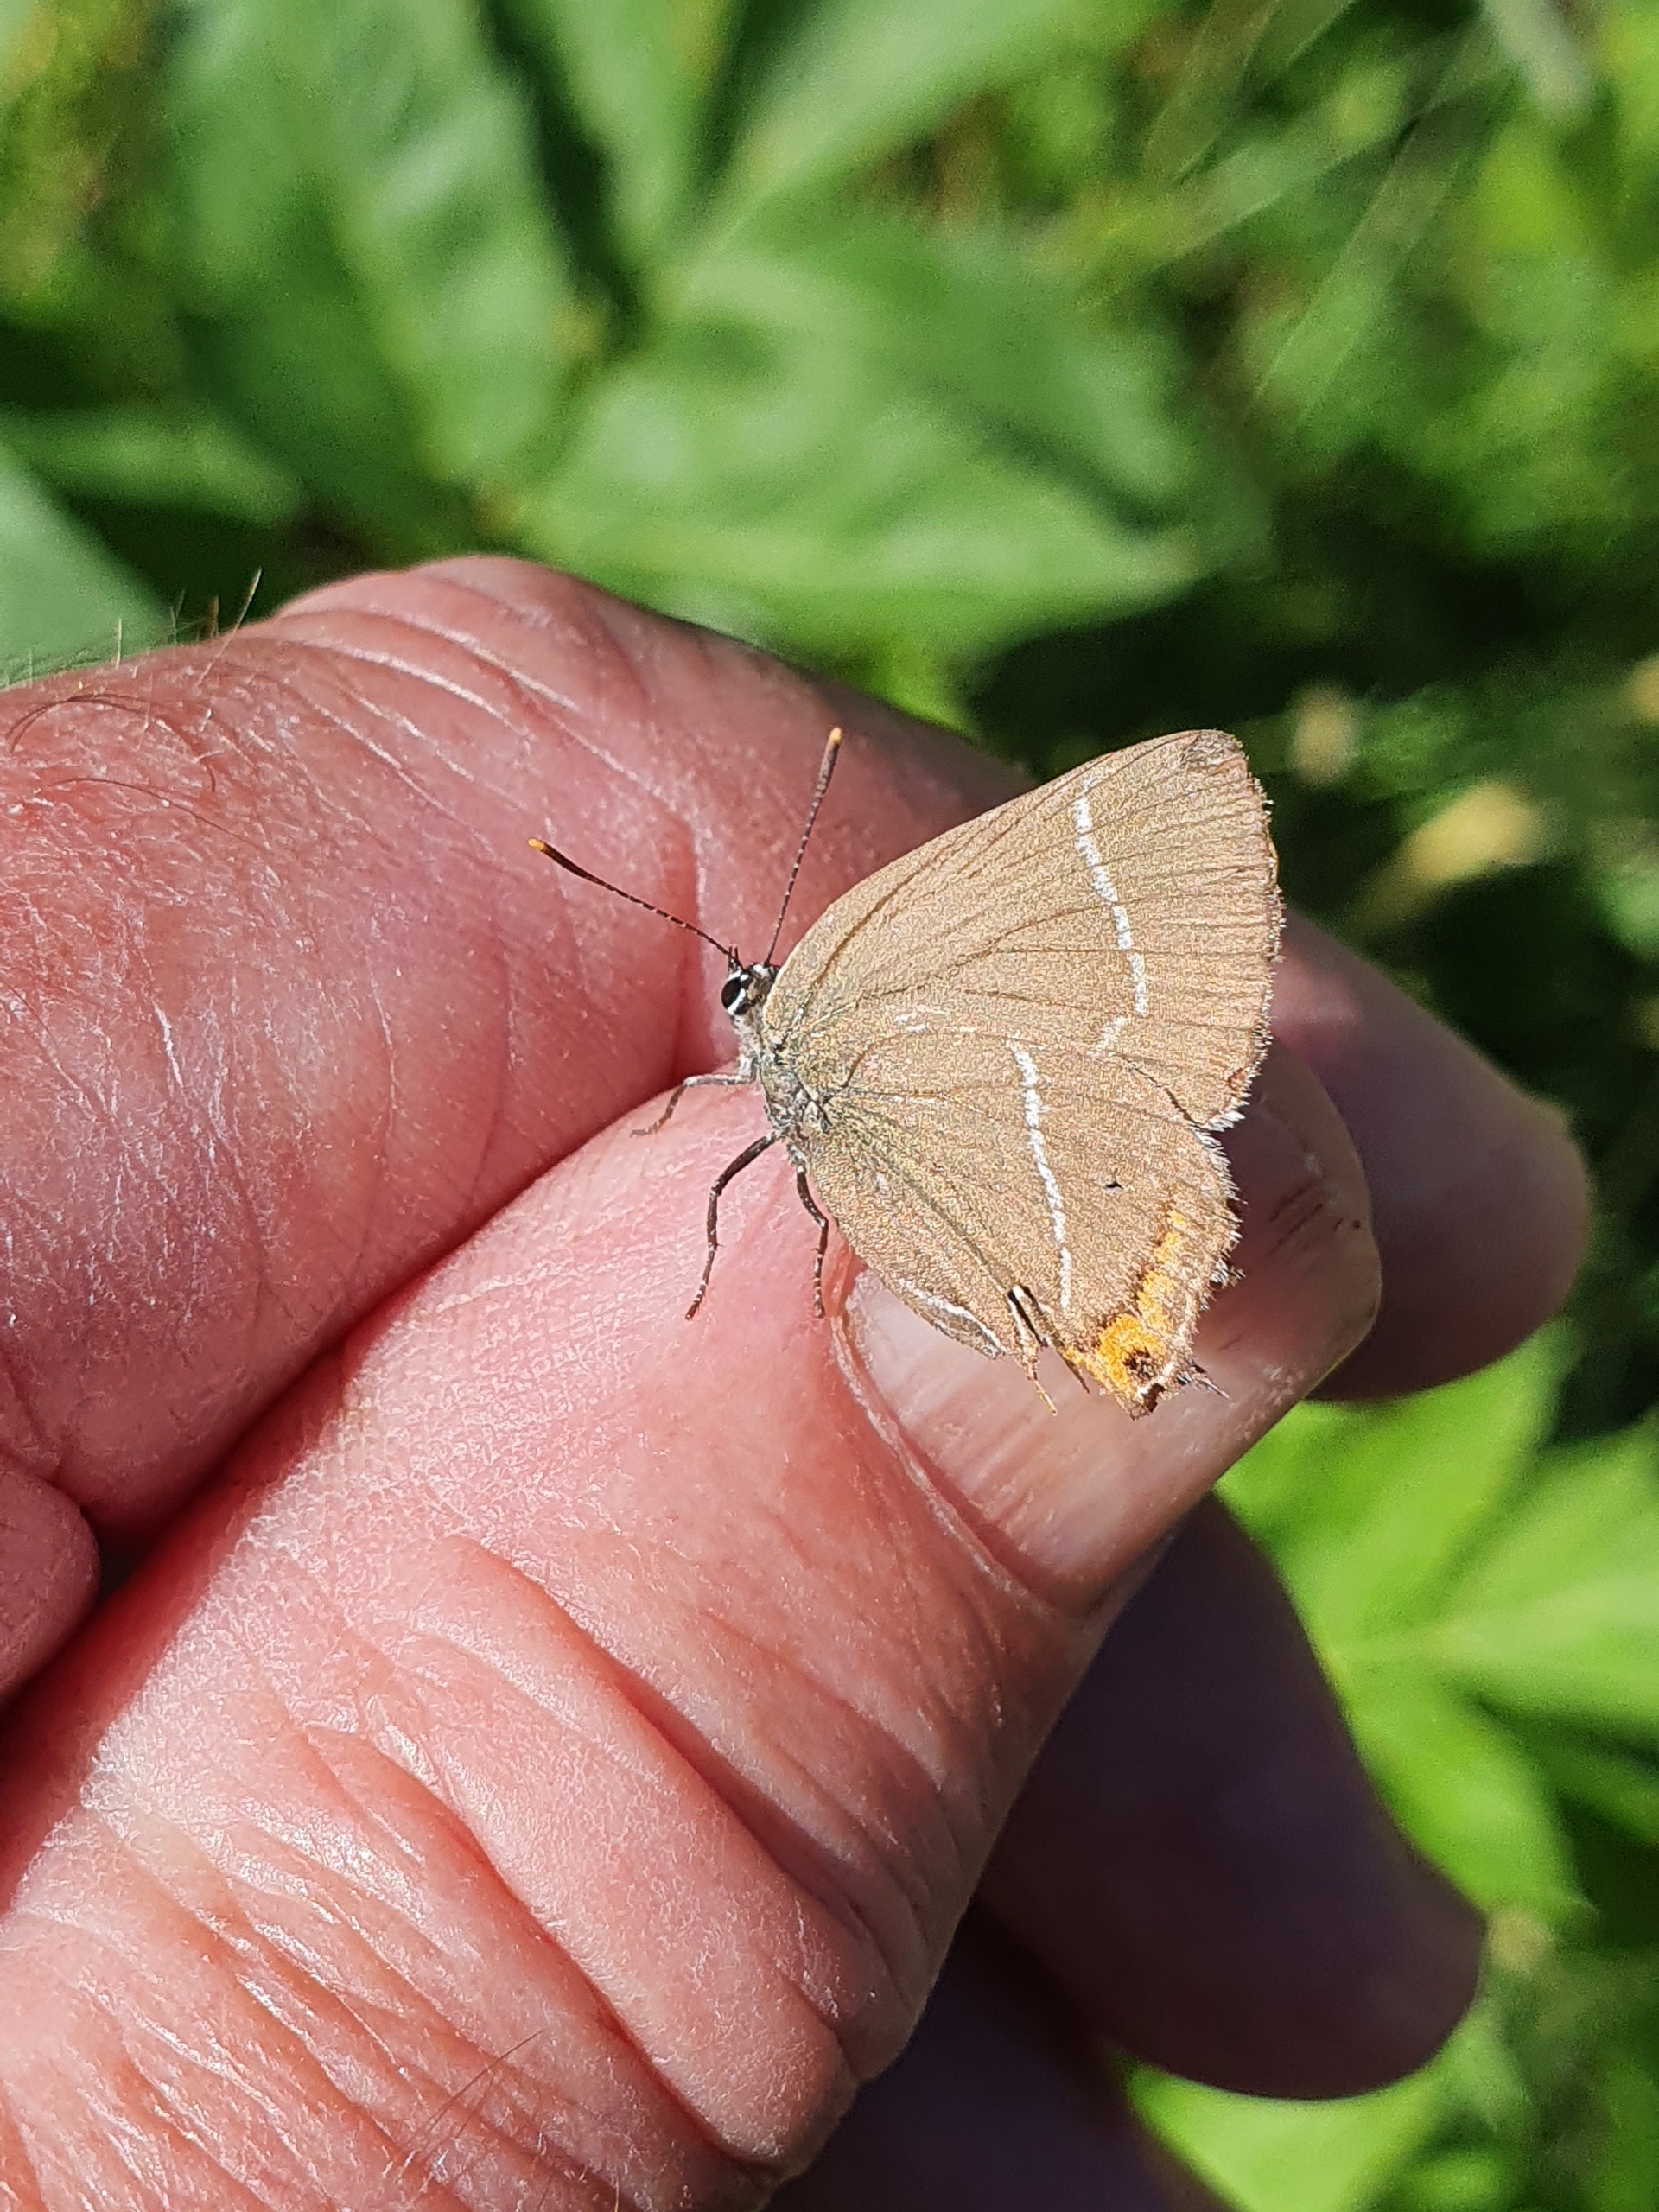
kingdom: Animalia
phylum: Arthropoda
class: Insecta
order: Lepidoptera
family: Lycaenidae
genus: Satyrium
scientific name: Satyrium w-album
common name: Det hvide W
